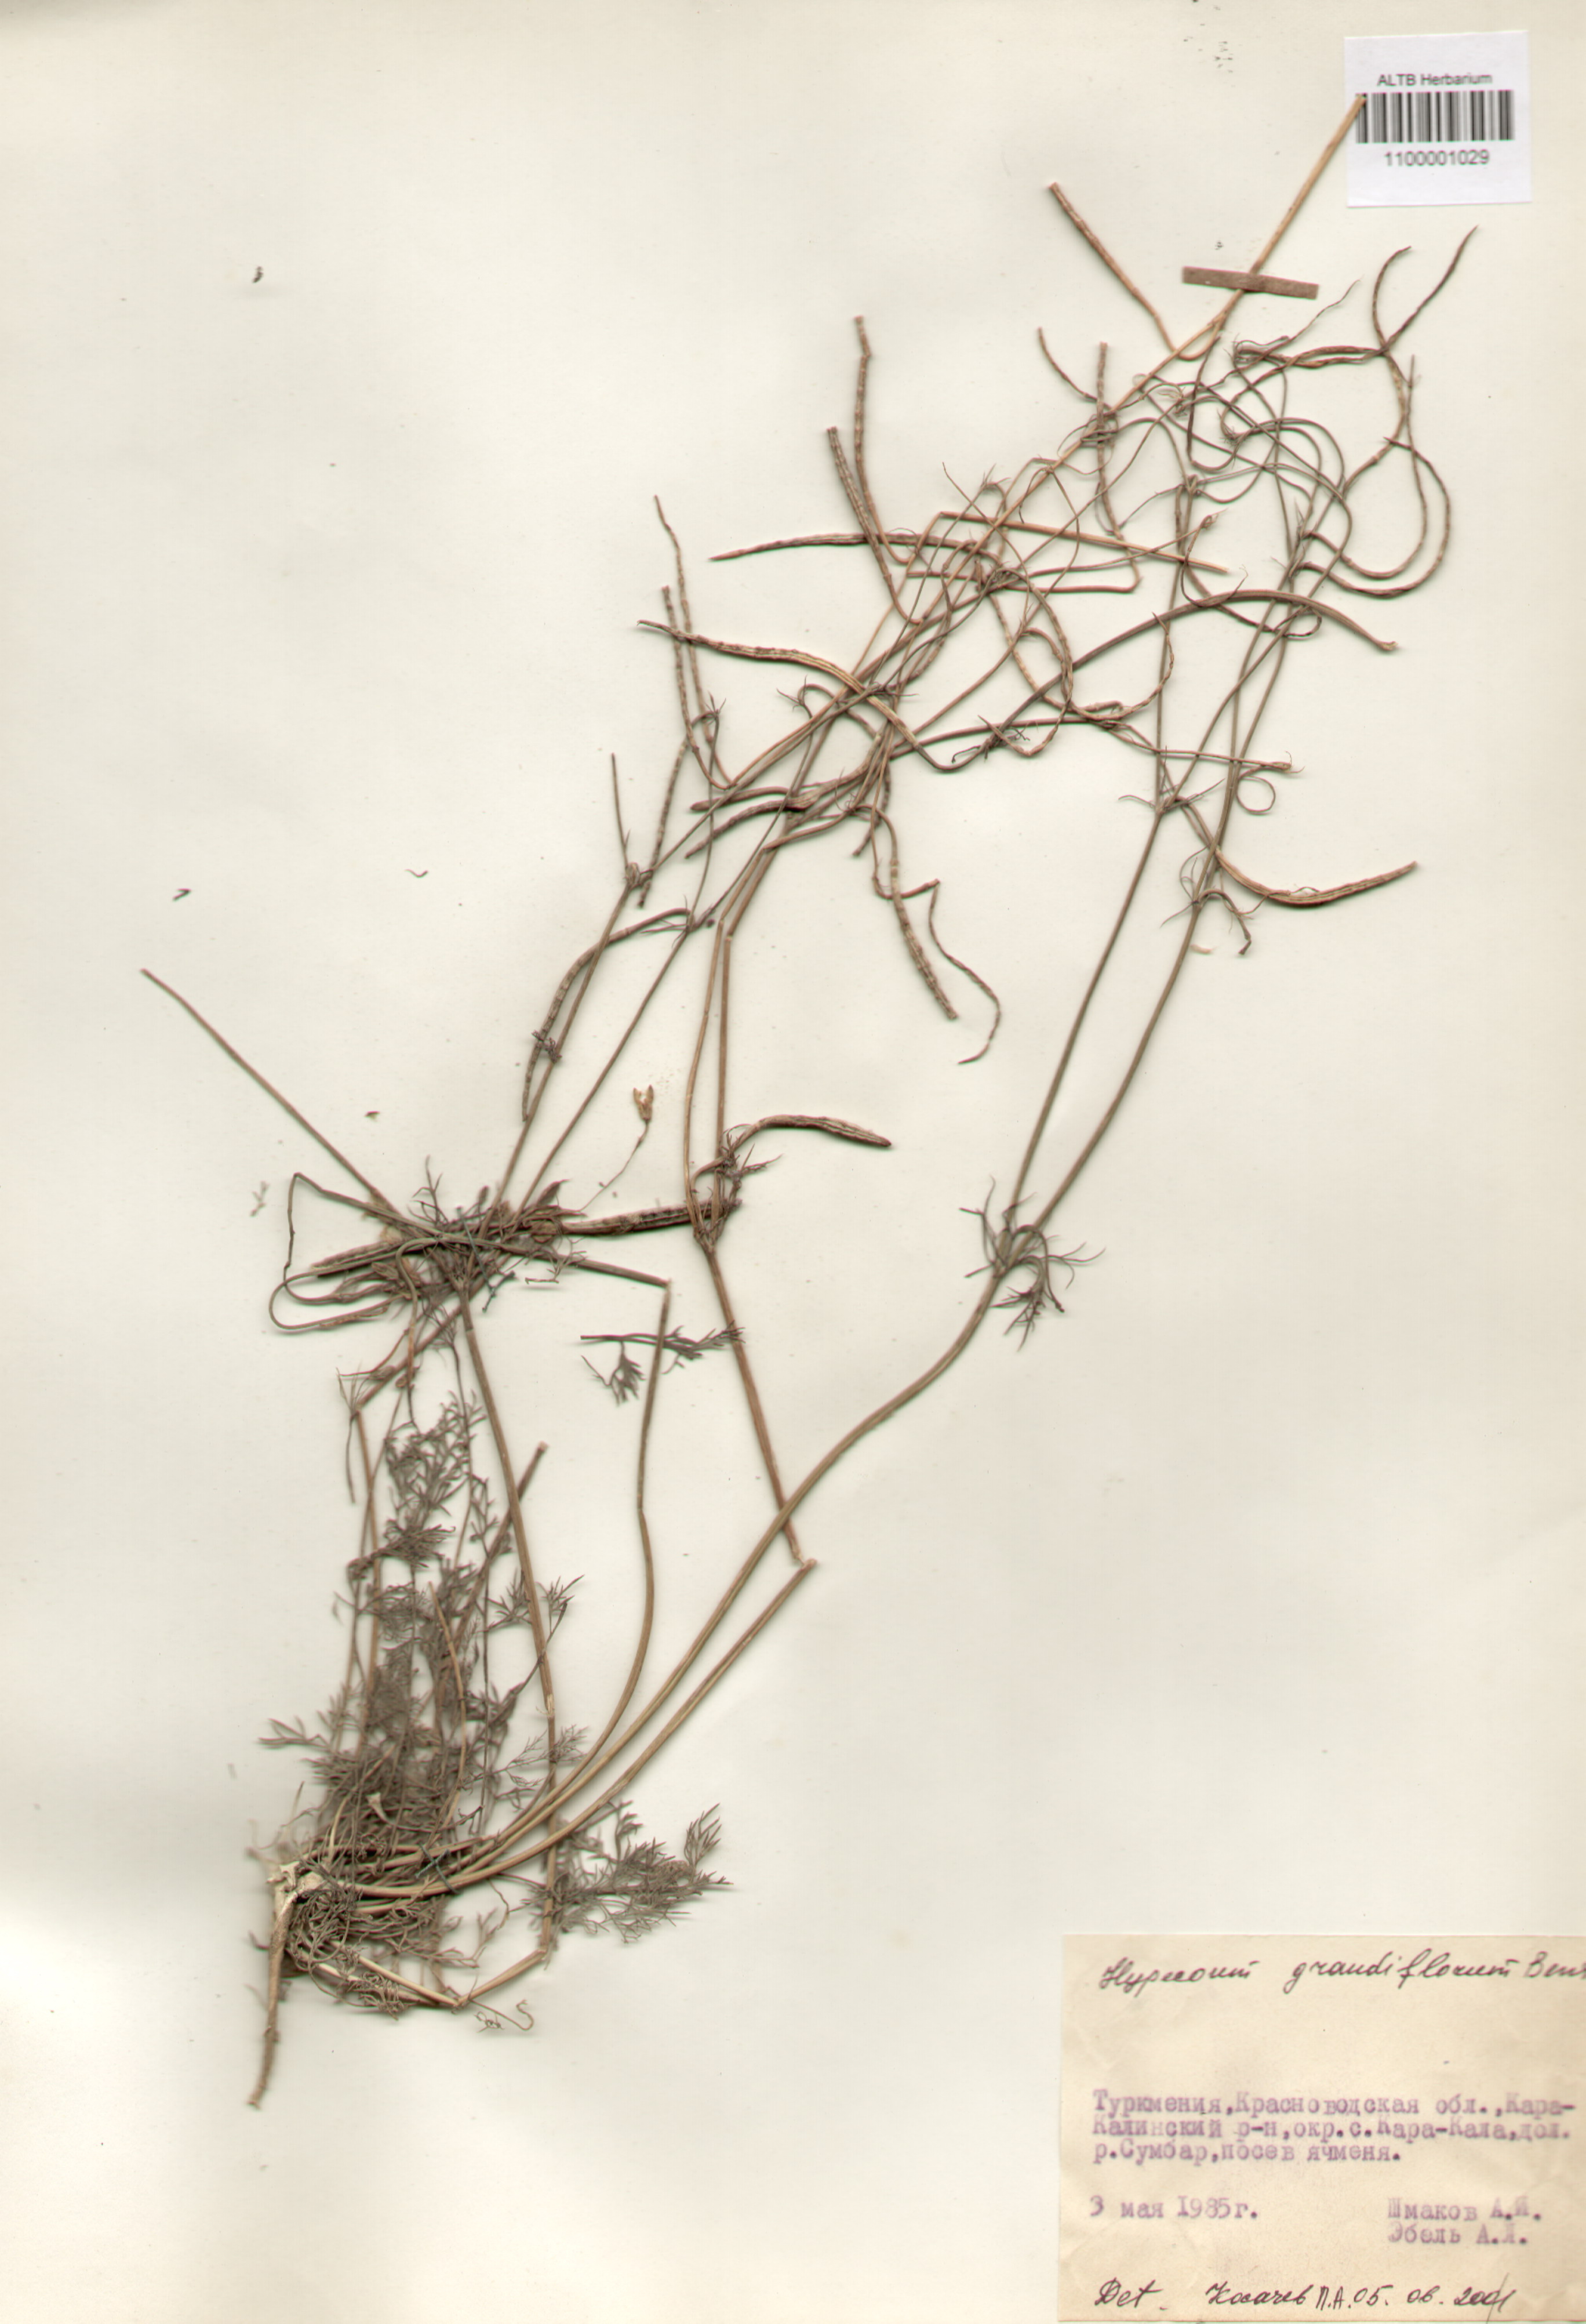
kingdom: Plantae
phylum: Tracheophyta
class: Magnoliopsida
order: Ranunculales
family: Papaveraceae
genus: Hypecoum
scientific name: Hypecoum imberbe
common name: Sicklefruit hypecoum
